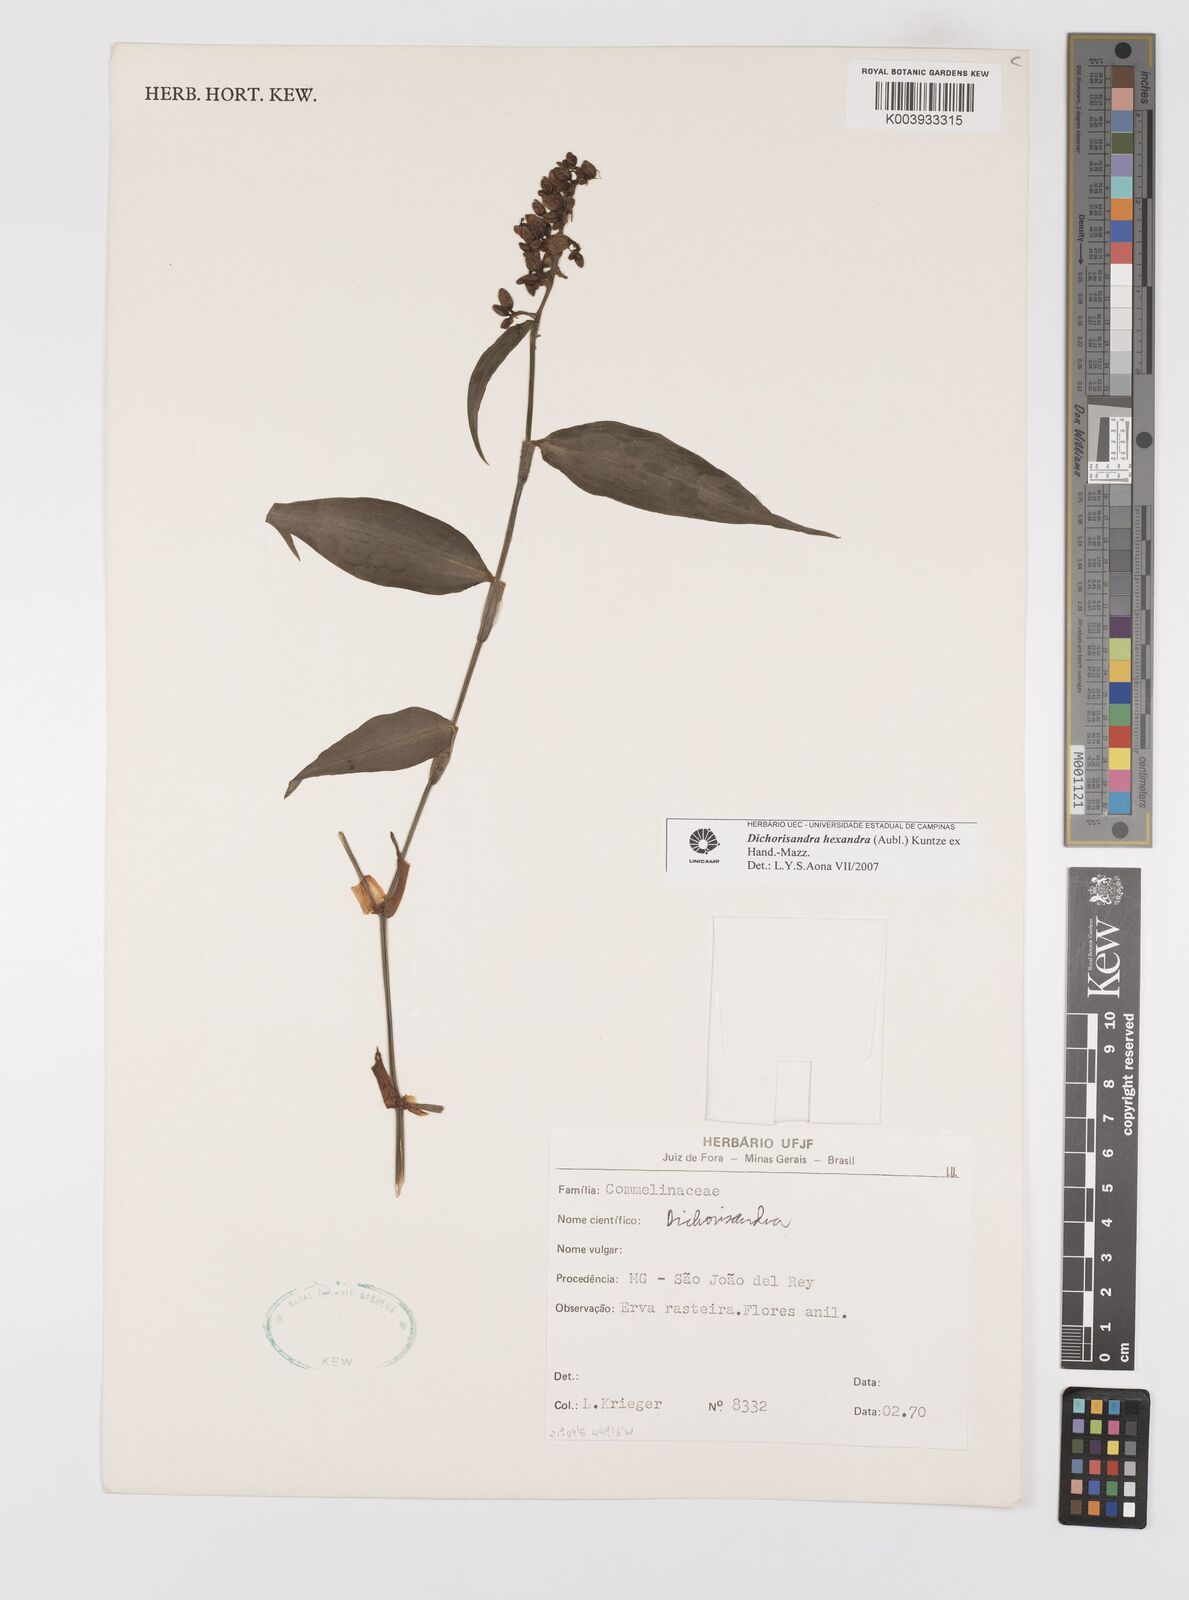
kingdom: Plantae
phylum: Tracheophyta
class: Liliopsida
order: Commelinales
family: Commelinaceae
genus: Dichorisandra
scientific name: Dichorisandra hexandra
